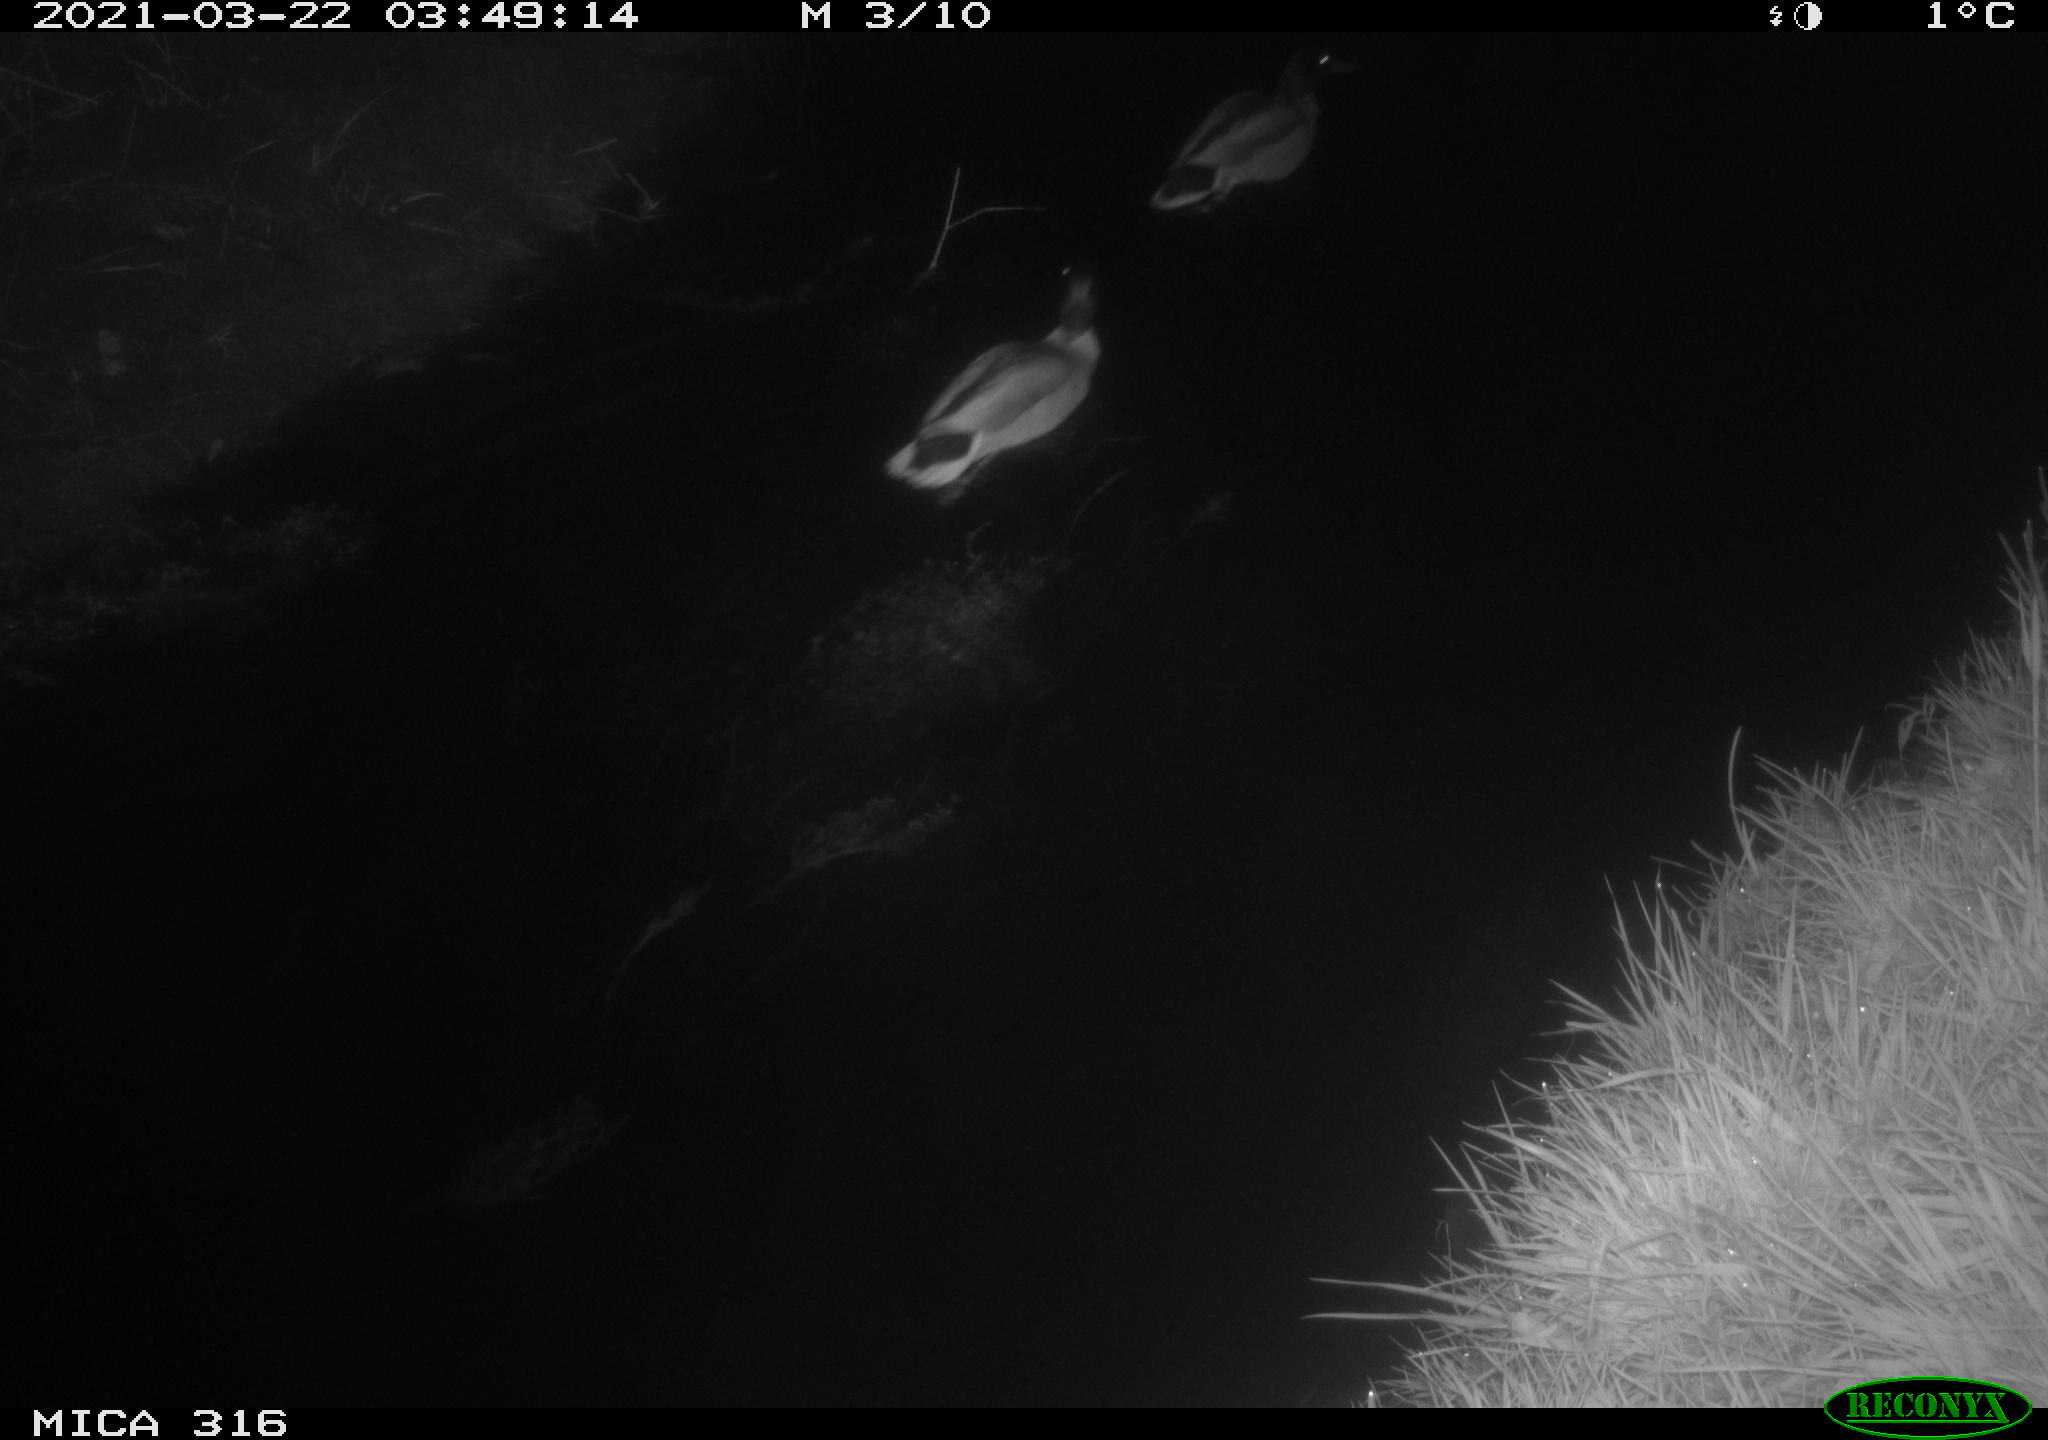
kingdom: Animalia
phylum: Chordata
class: Aves
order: Anseriformes
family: Anatidae
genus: Anas
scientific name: Anas platyrhynchos
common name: Mallard
